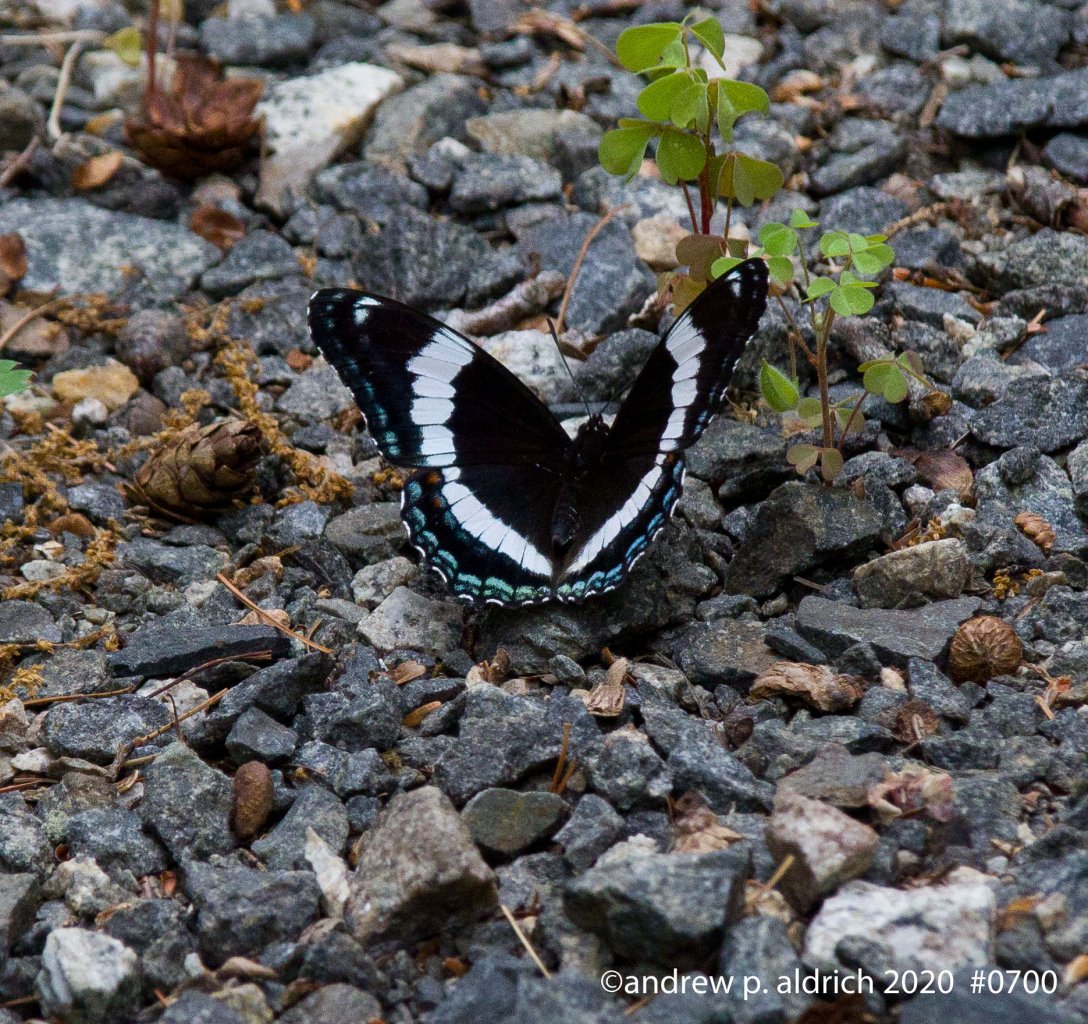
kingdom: Animalia
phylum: Arthropoda
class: Insecta
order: Lepidoptera
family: Nymphalidae
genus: Limenitis
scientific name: Limenitis arthemis
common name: Red-spotted Admiral
